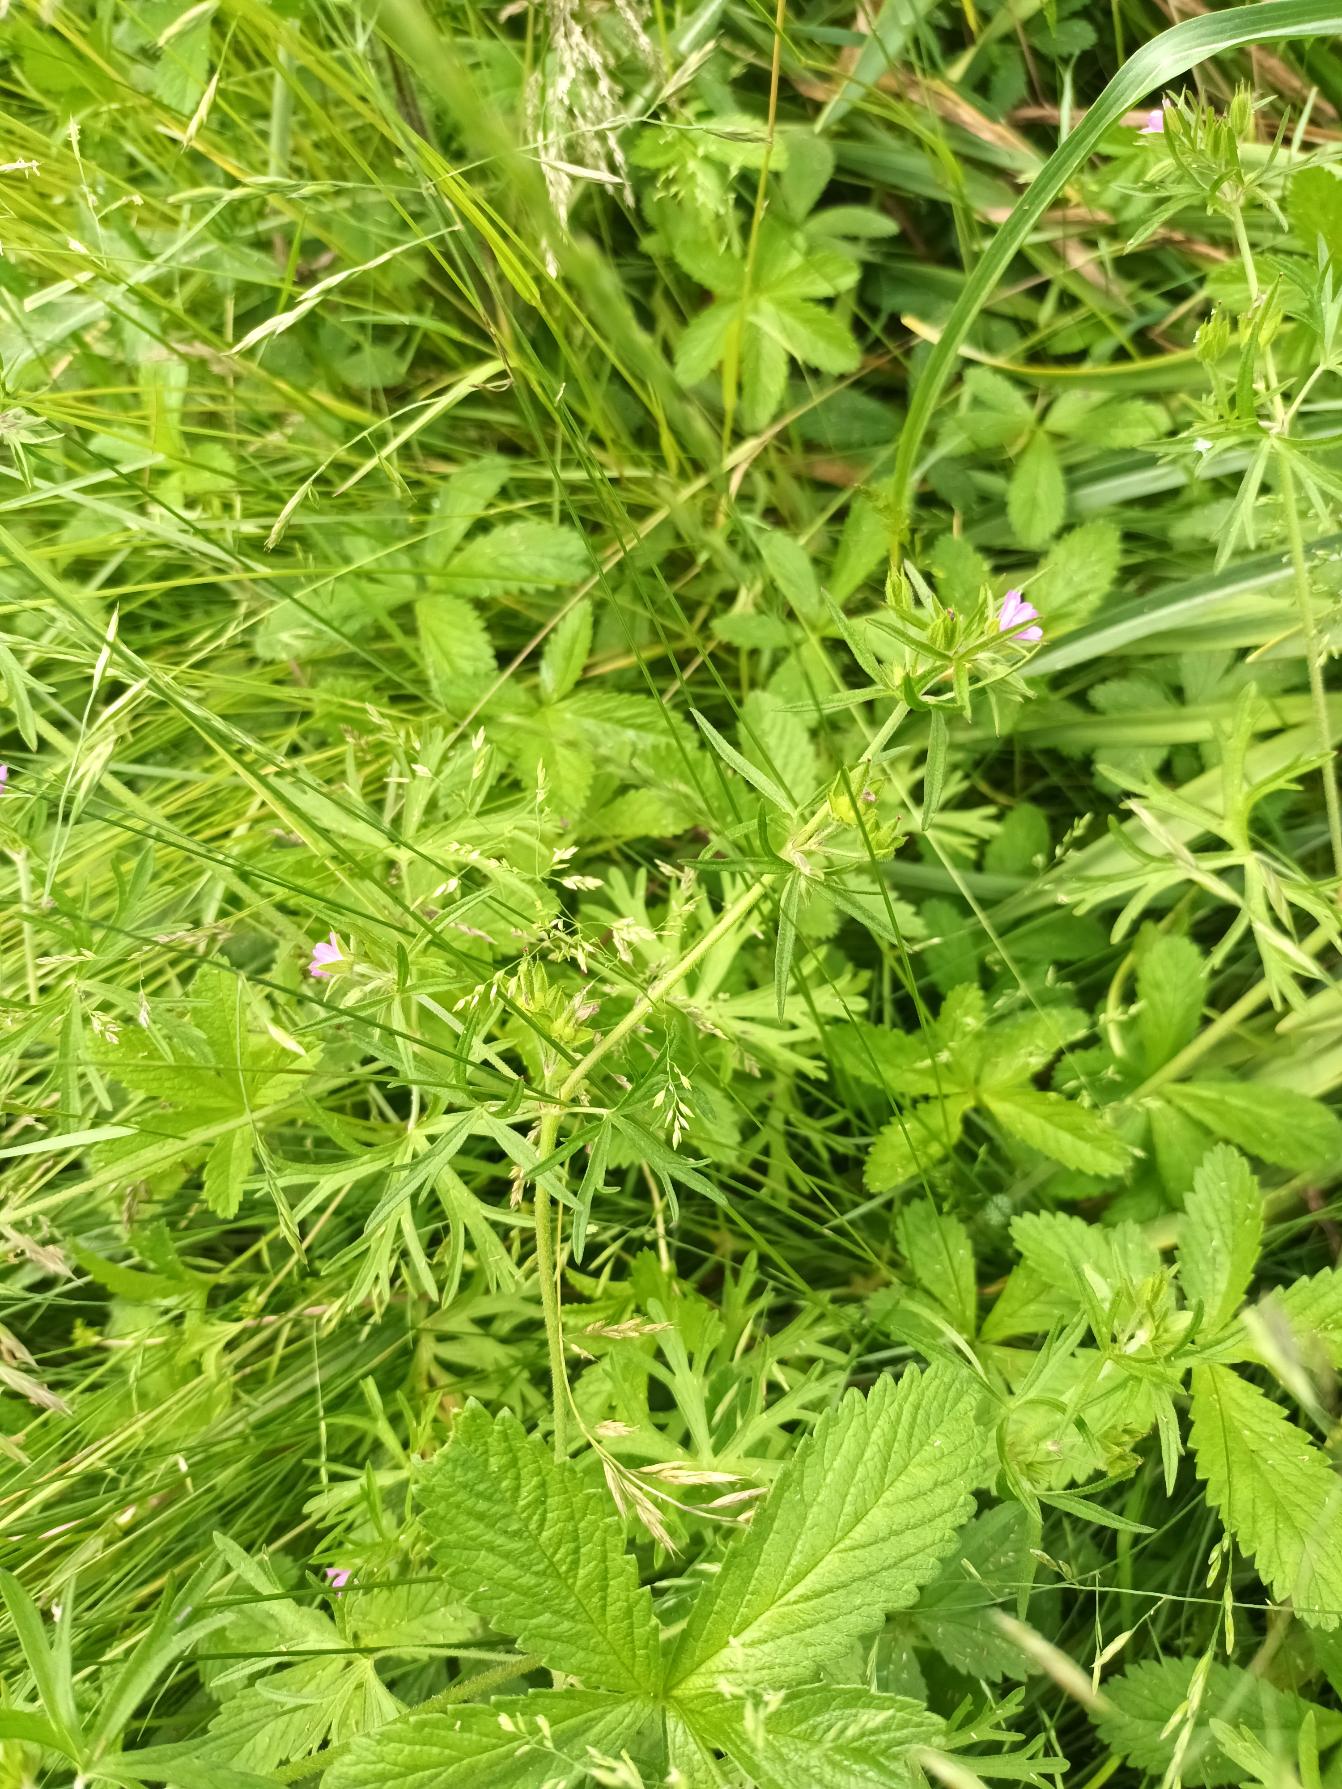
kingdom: Plantae
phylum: Tracheophyta
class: Magnoliopsida
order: Geraniales
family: Geraniaceae
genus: Geranium
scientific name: Geranium dissectum
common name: Kløftet storkenæb
